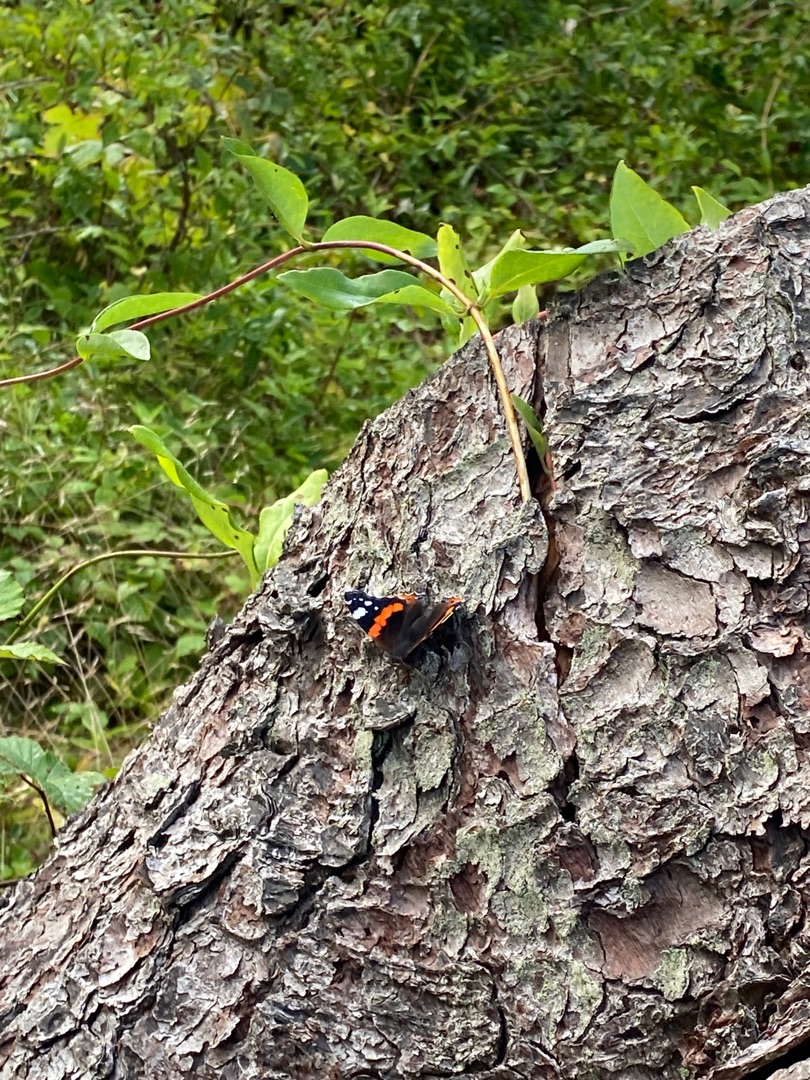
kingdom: Animalia
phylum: Arthropoda
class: Insecta
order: Lepidoptera
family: Nymphalidae
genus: Vanessa
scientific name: Vanessa atalanta
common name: Admiral
